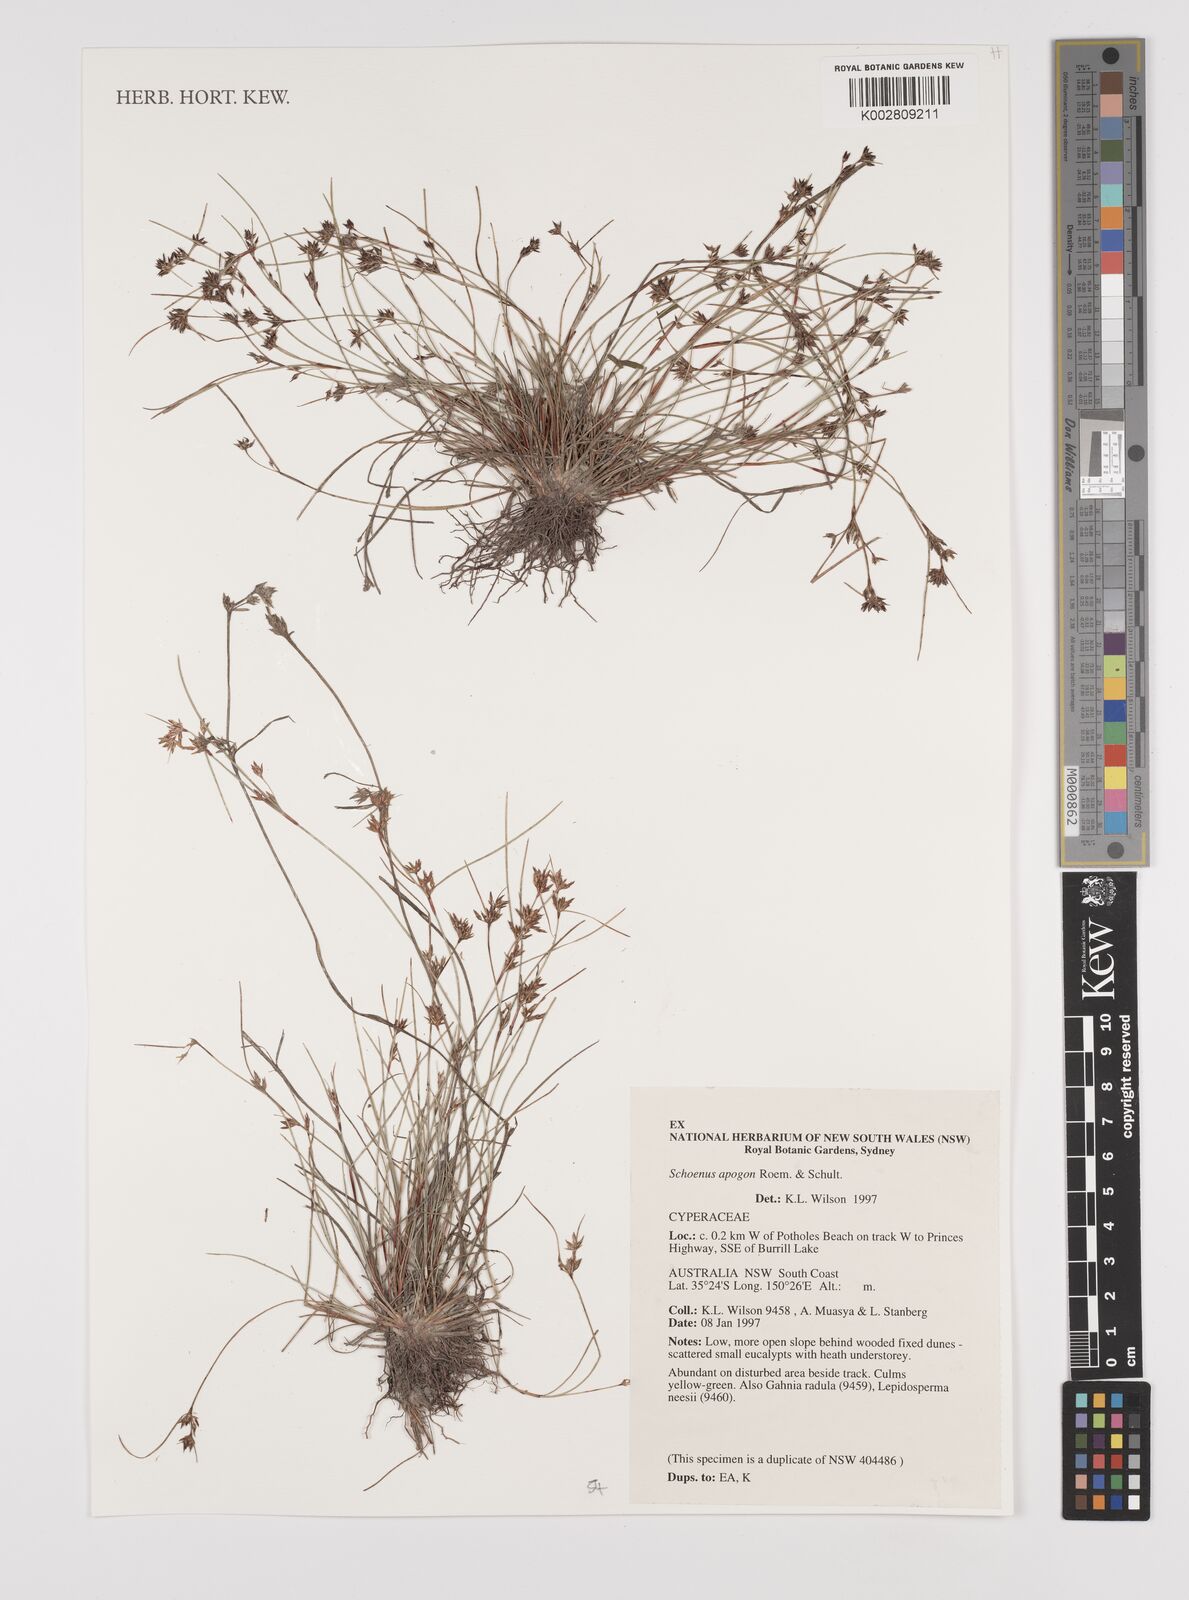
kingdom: Plantae
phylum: Tracheophyta
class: Liliopsida
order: Poales
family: Cyperaceae
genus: Schoenus
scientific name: Schoenus apogon
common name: Smooth bogrush
